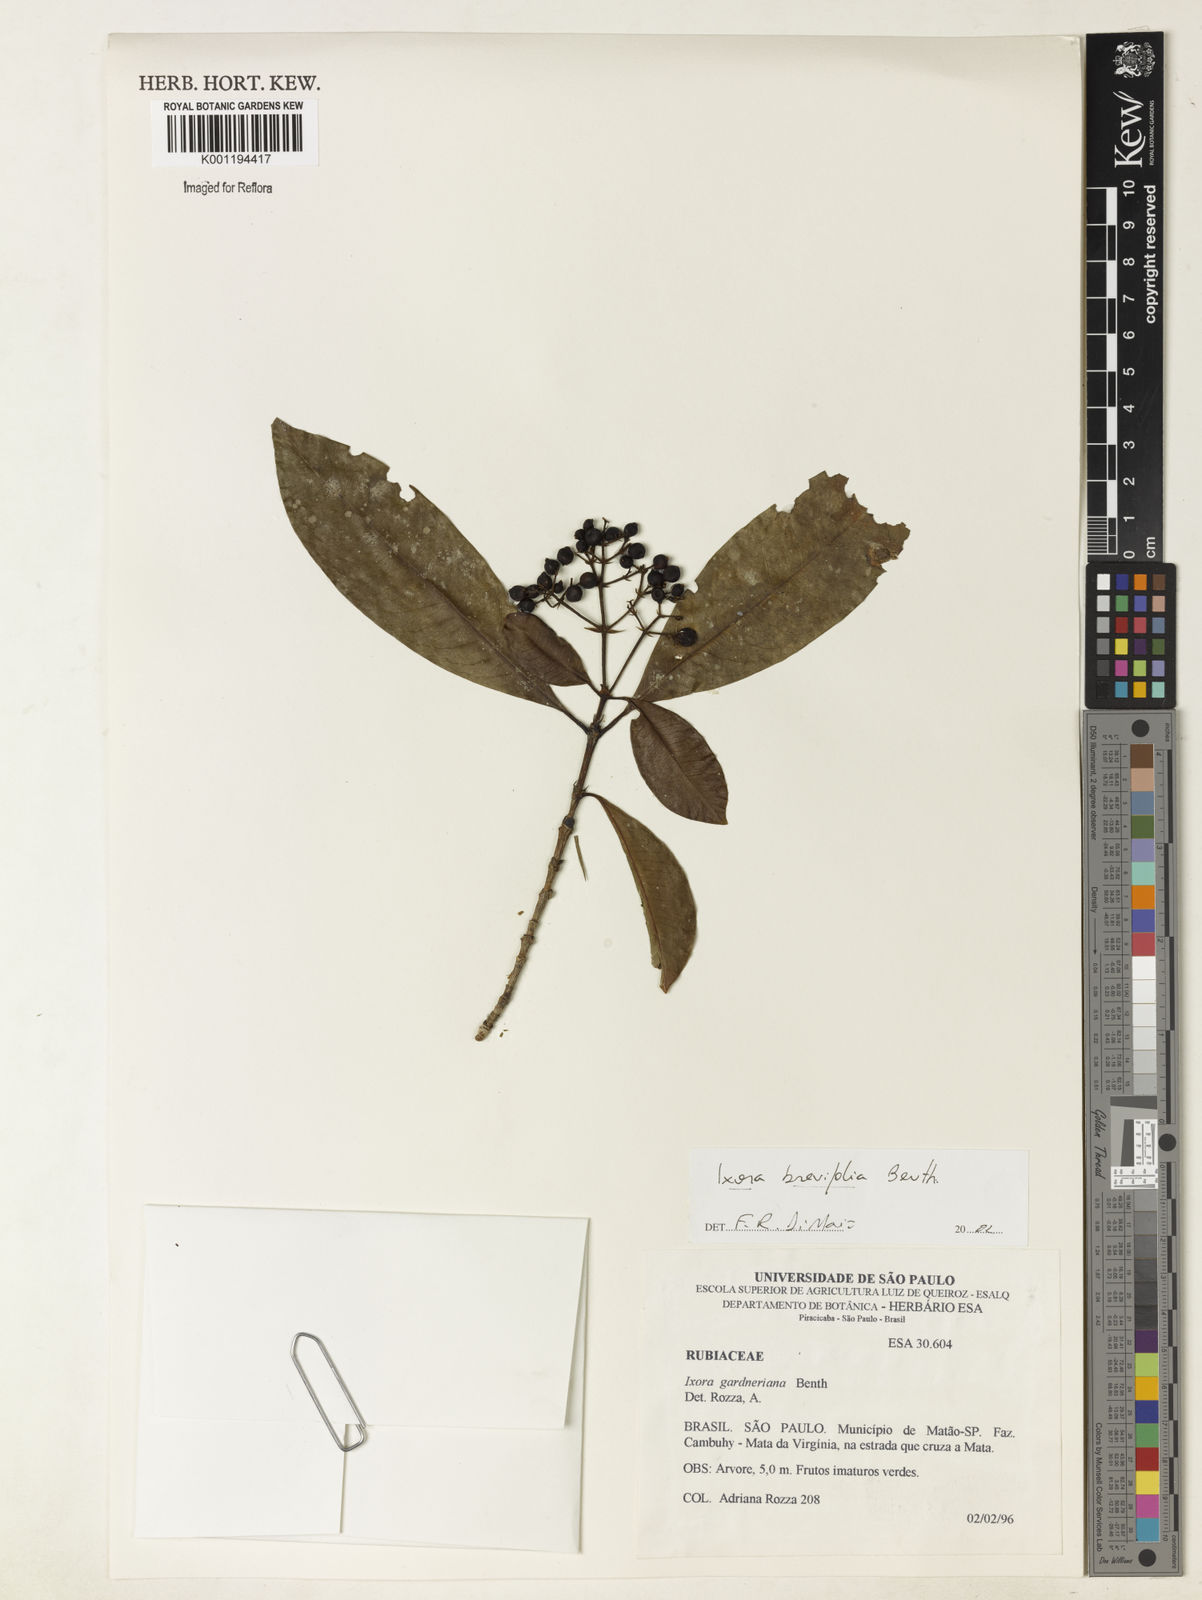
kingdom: Plantae
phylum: Tracheophyta
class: Magnoliopsida
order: Gentianales
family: Rubiaceae
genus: Ixora
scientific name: Ixora brevifolia
